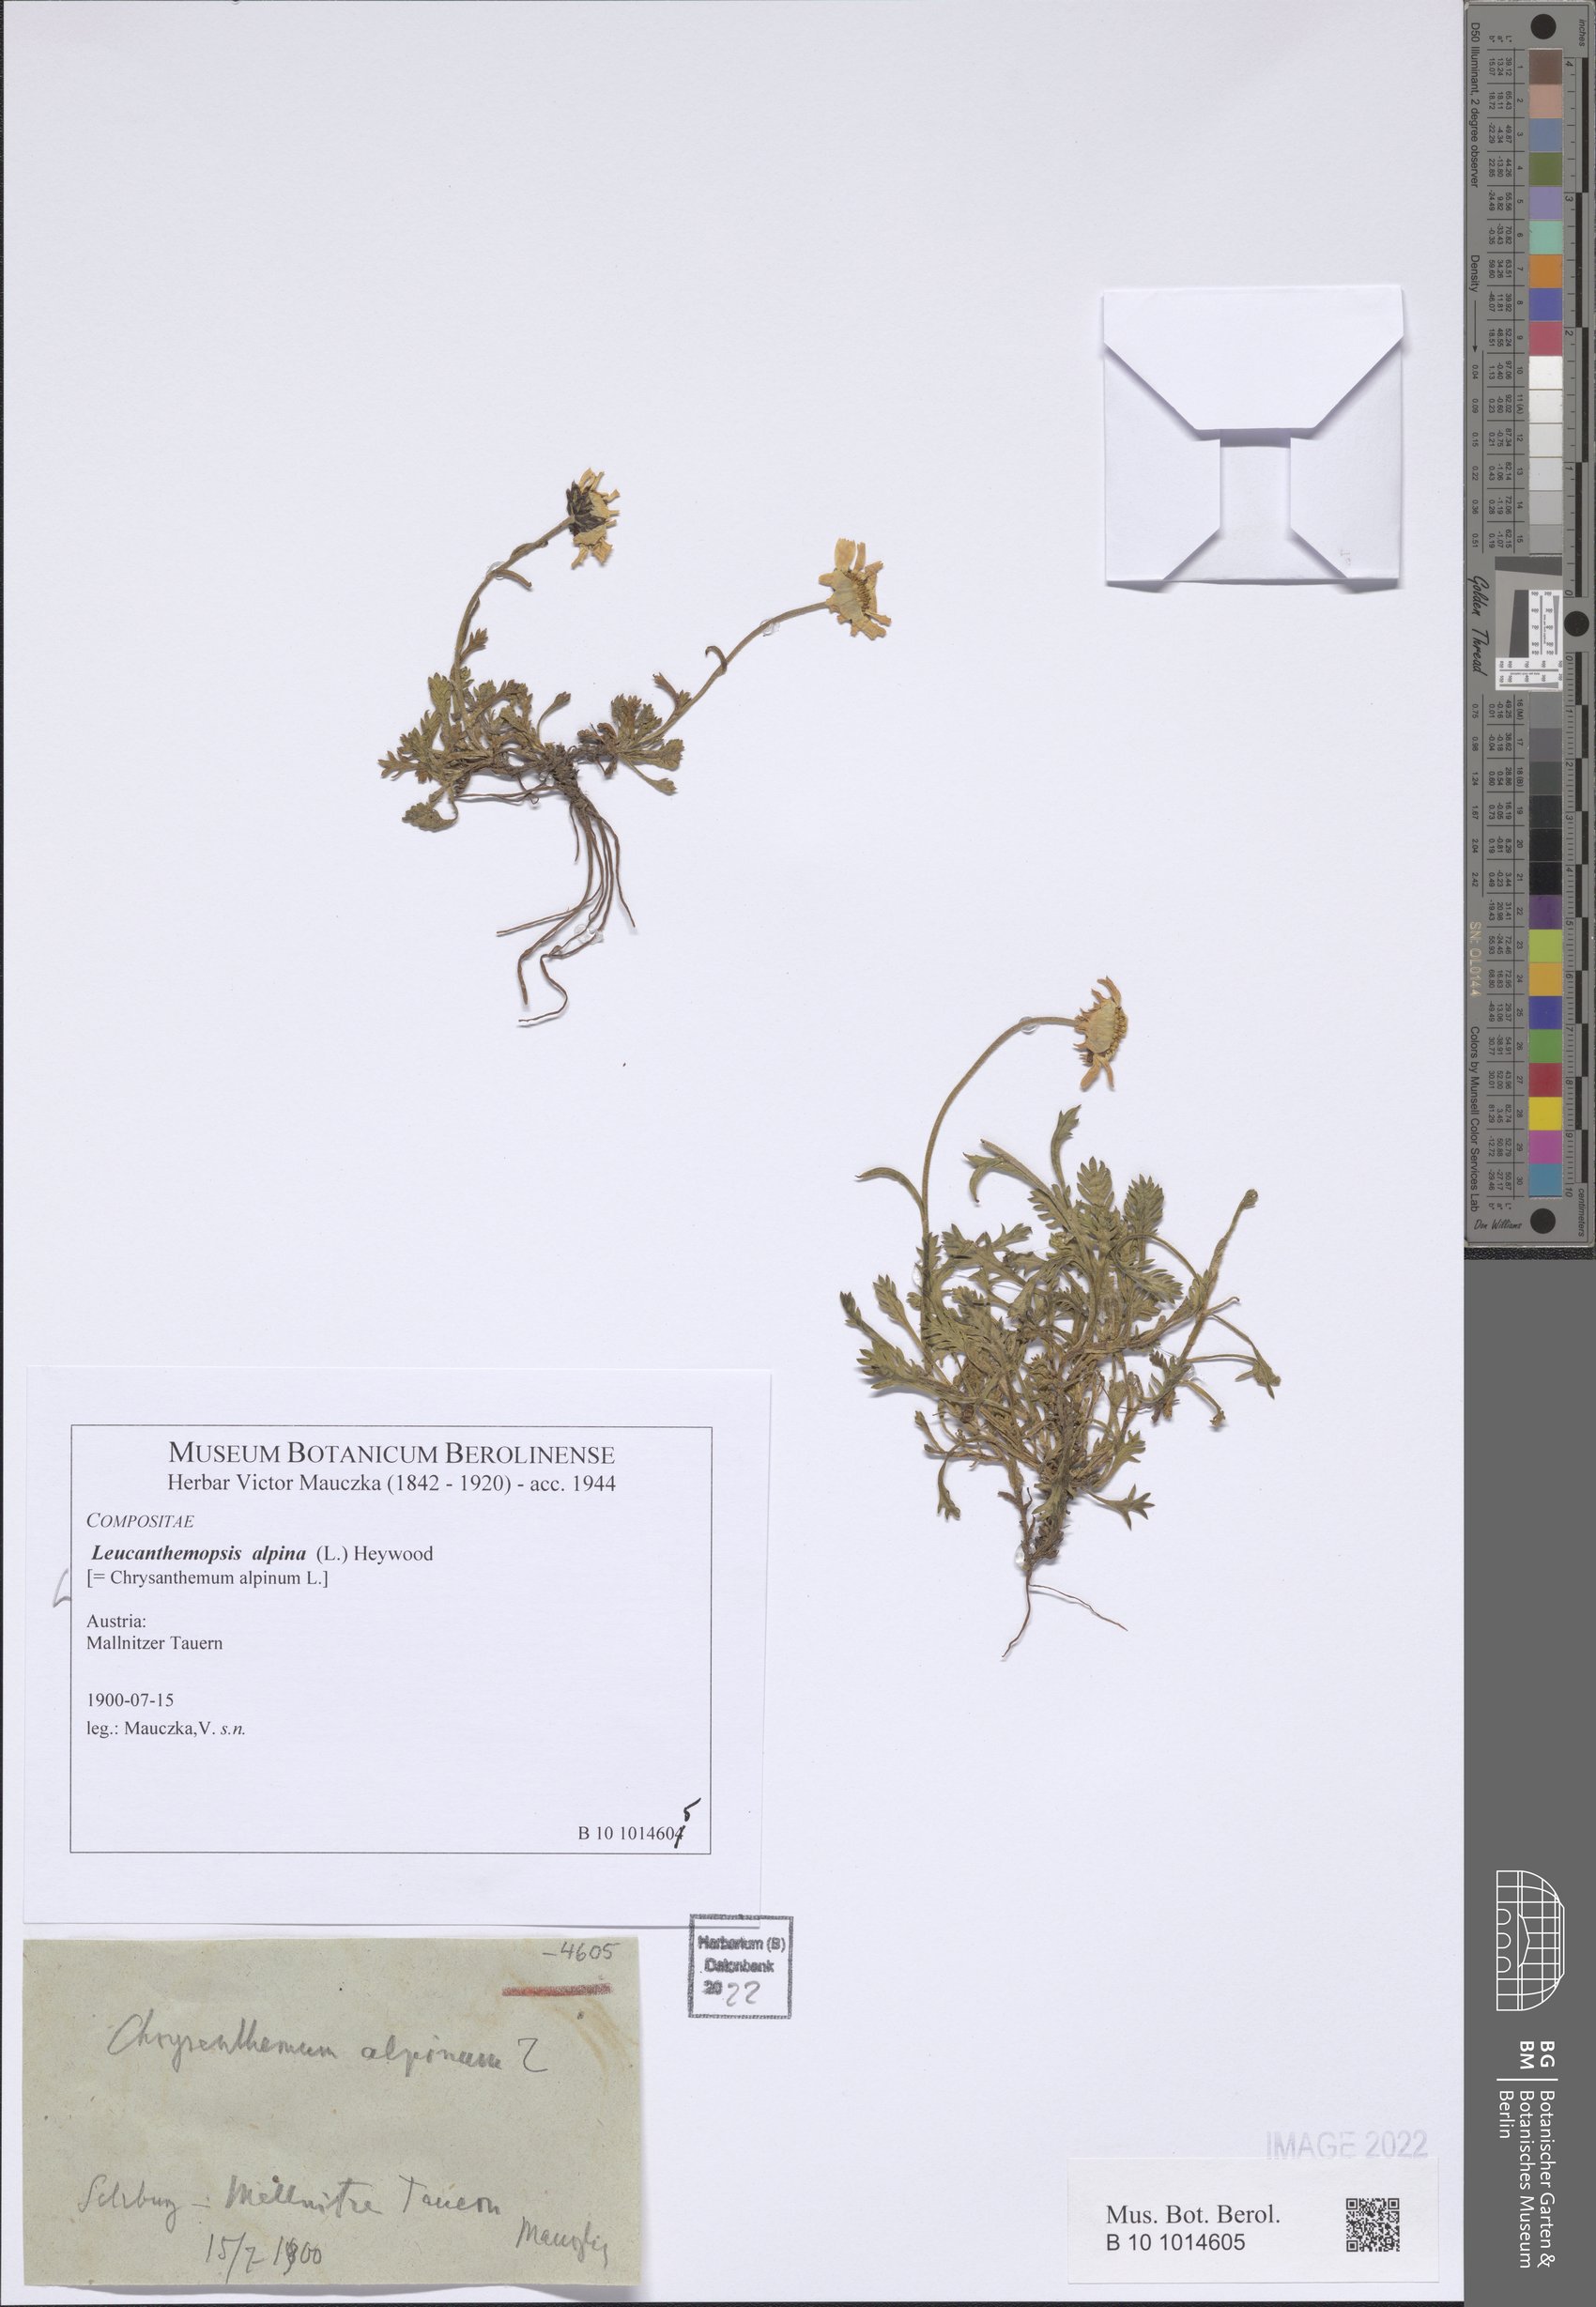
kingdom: Plantae
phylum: Tracheophyta
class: Magnoliopsida
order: Asterales
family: Asteraceae
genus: Leucanthemopsis
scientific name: Leucanthemopsis alpina
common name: Alpine moon daisy
